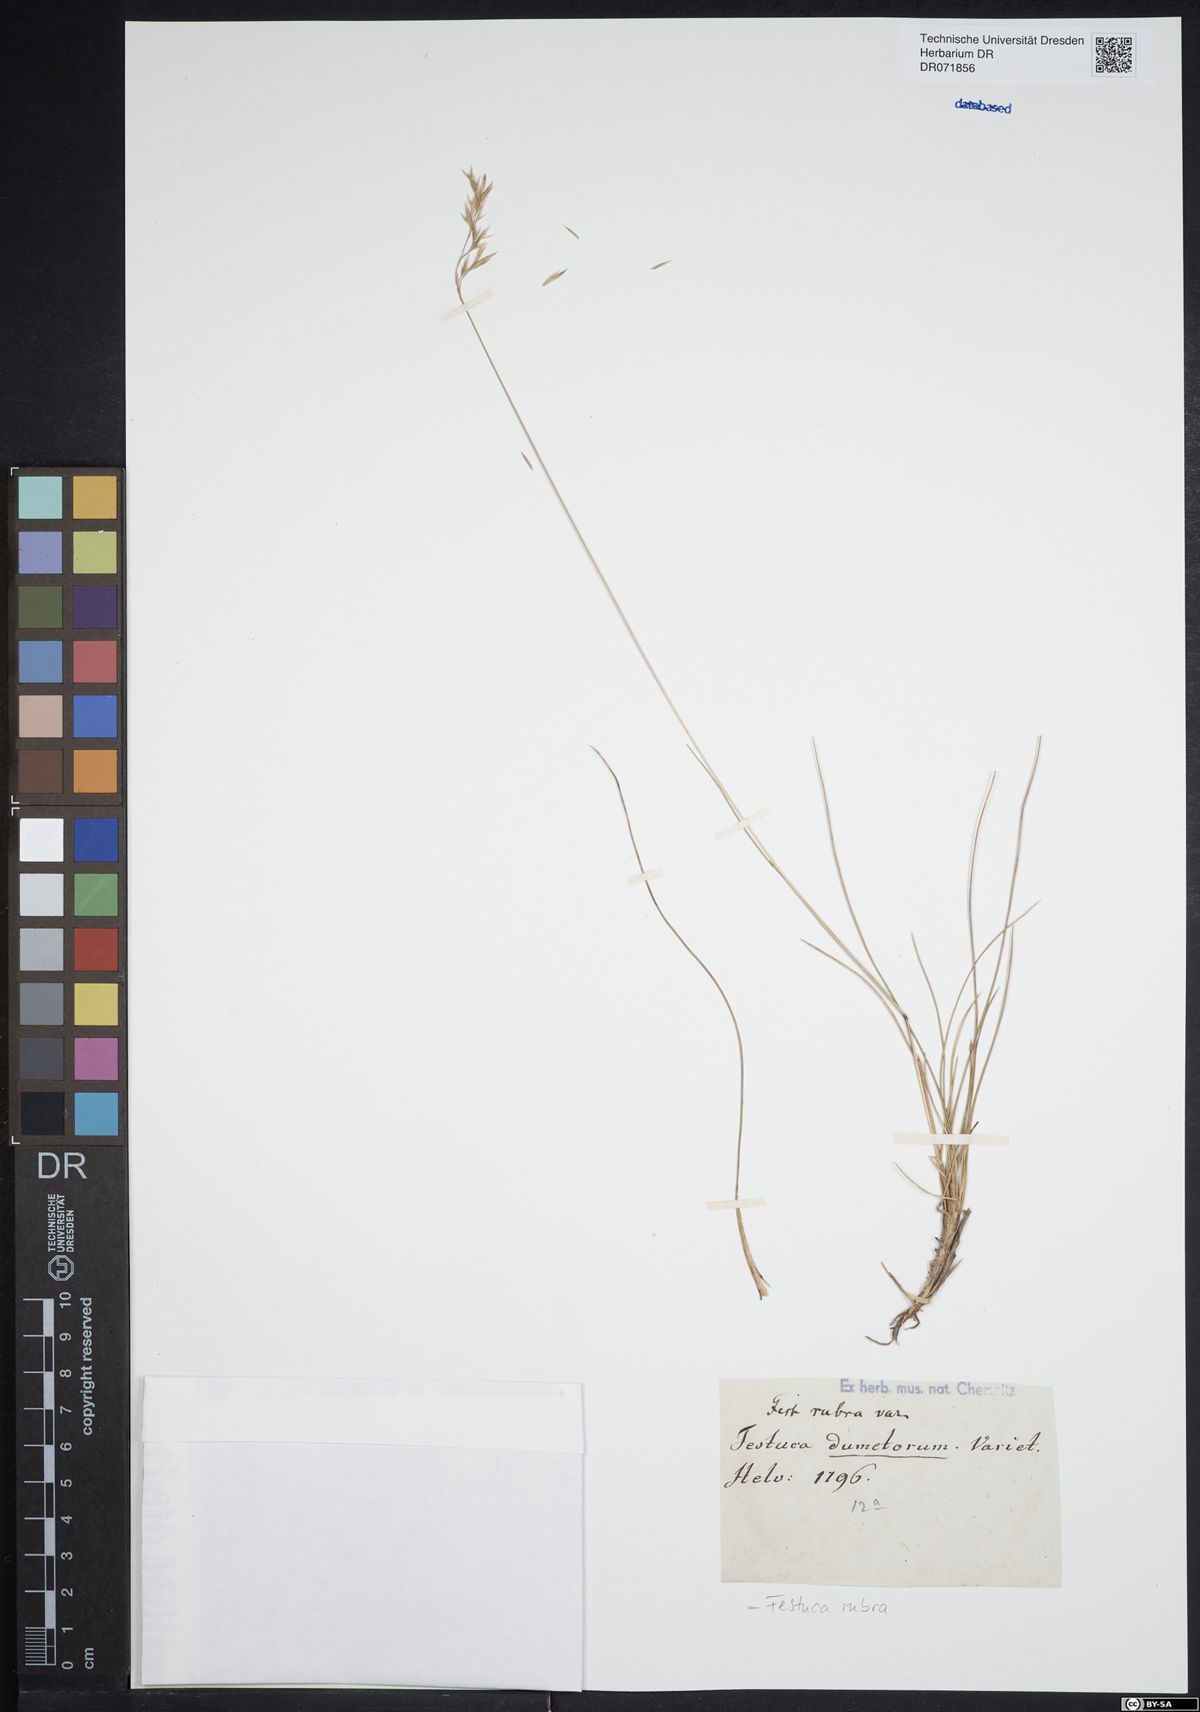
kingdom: Plantae
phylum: Tracheophyta
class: Liliopsida
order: Poales
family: Poaceae
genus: Festuca
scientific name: Festuca rubra
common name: Red fescue
